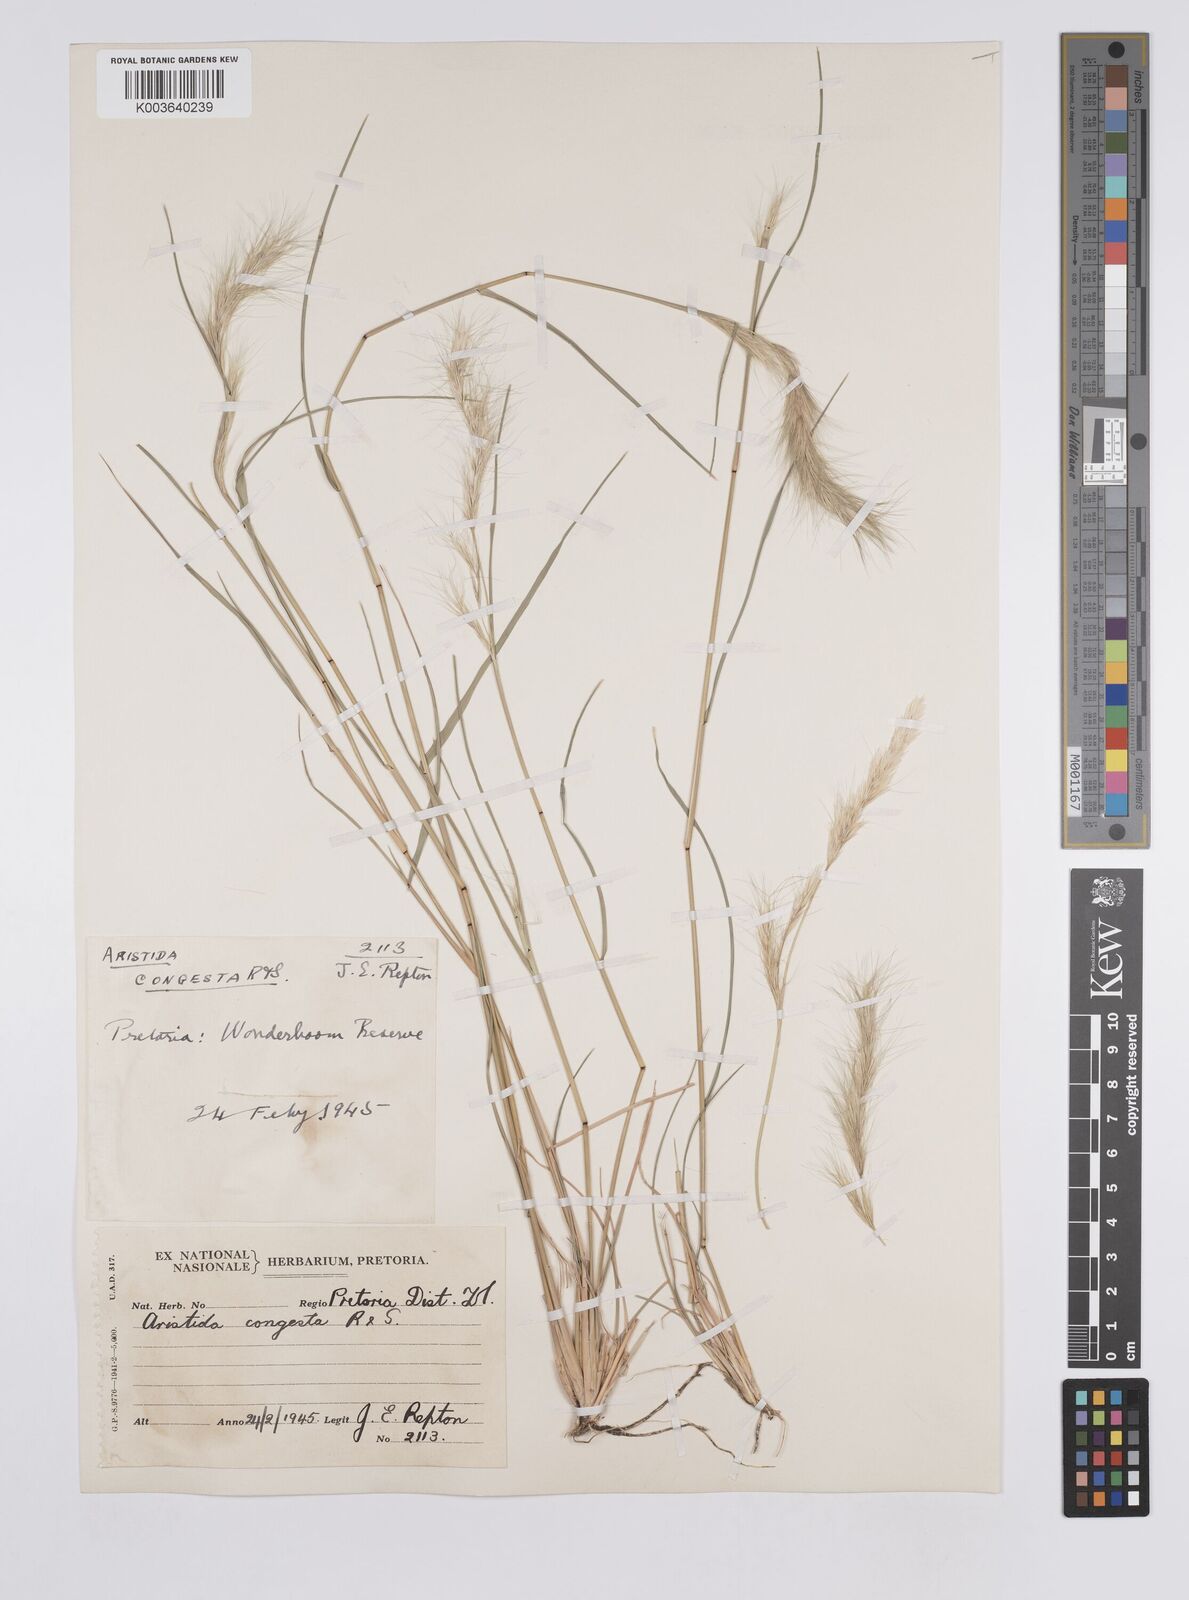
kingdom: Plantae
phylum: Tracheophyta
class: Liliopsida
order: Poales
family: Poaceae
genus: Aristida
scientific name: Aristida congesta
